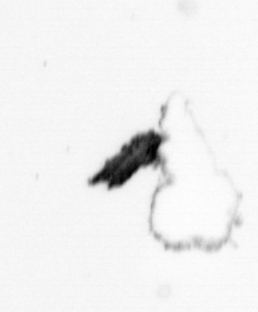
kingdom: Animalia
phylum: Arthropoda
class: Copepoda
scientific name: Copepoda
